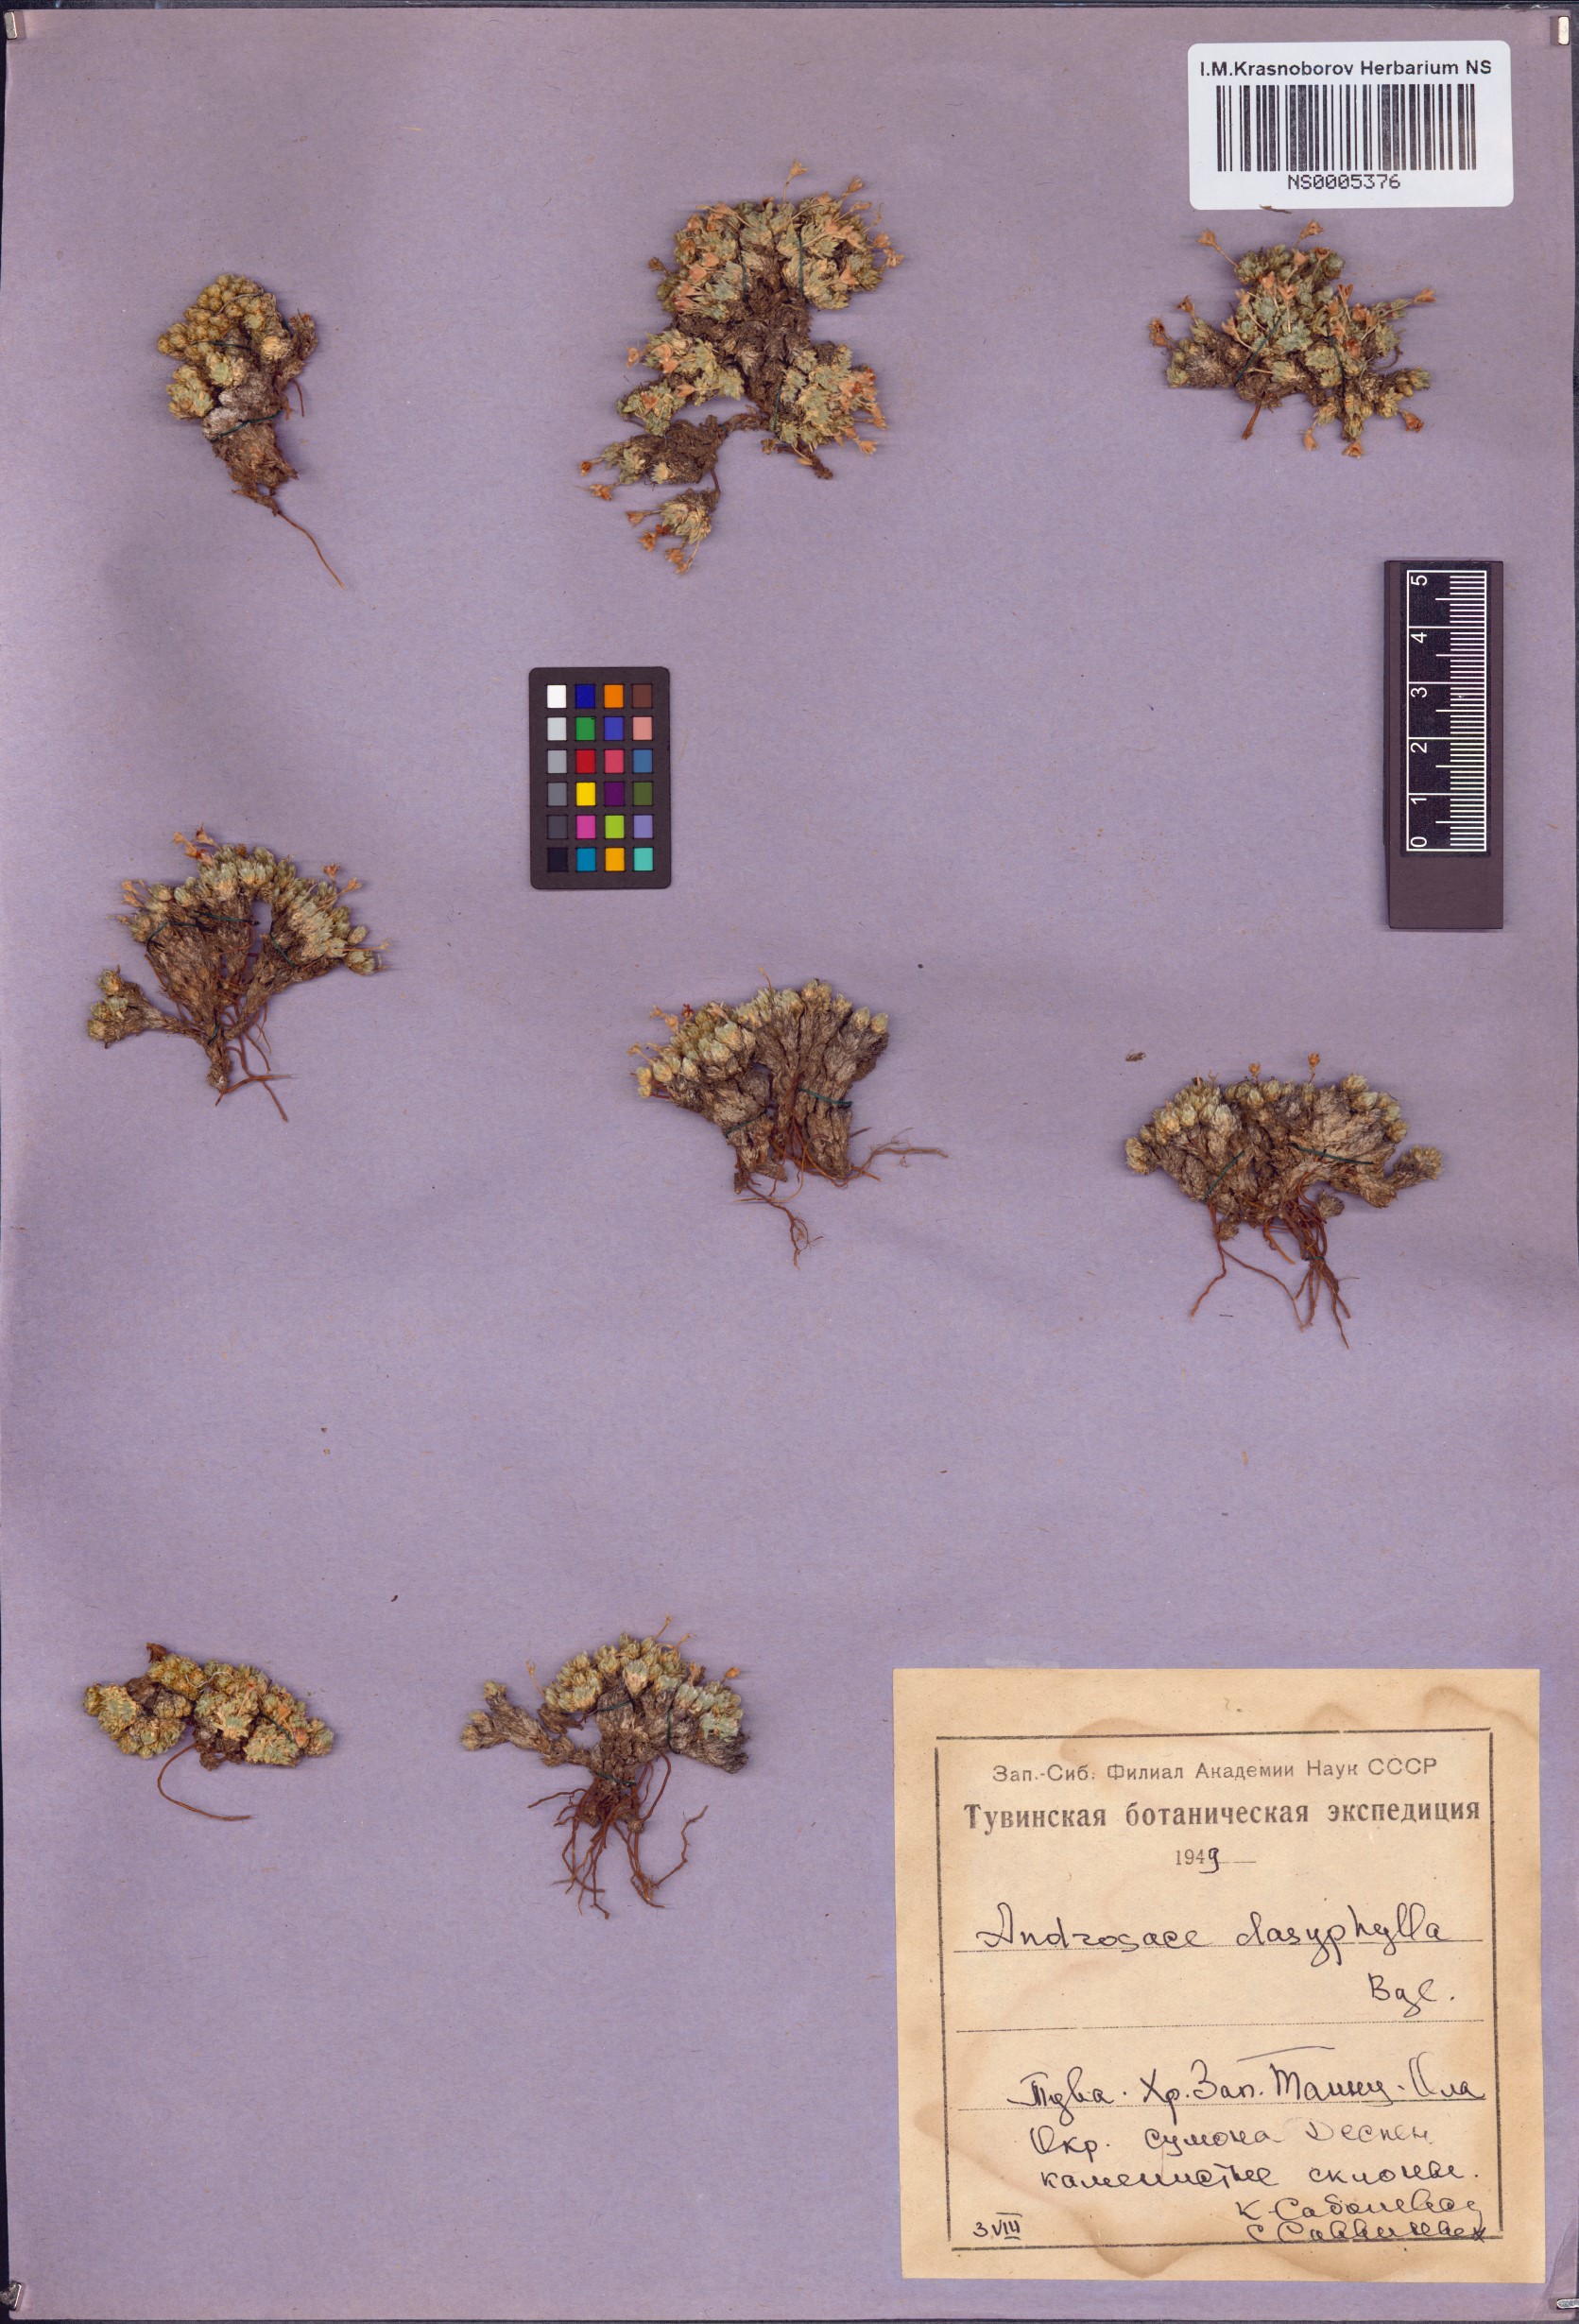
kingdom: Plantae
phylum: Tracheophyta
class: Magnoliopsida
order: Ericales
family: Primulaceae
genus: Androsace
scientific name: Androsace dasyphylla
